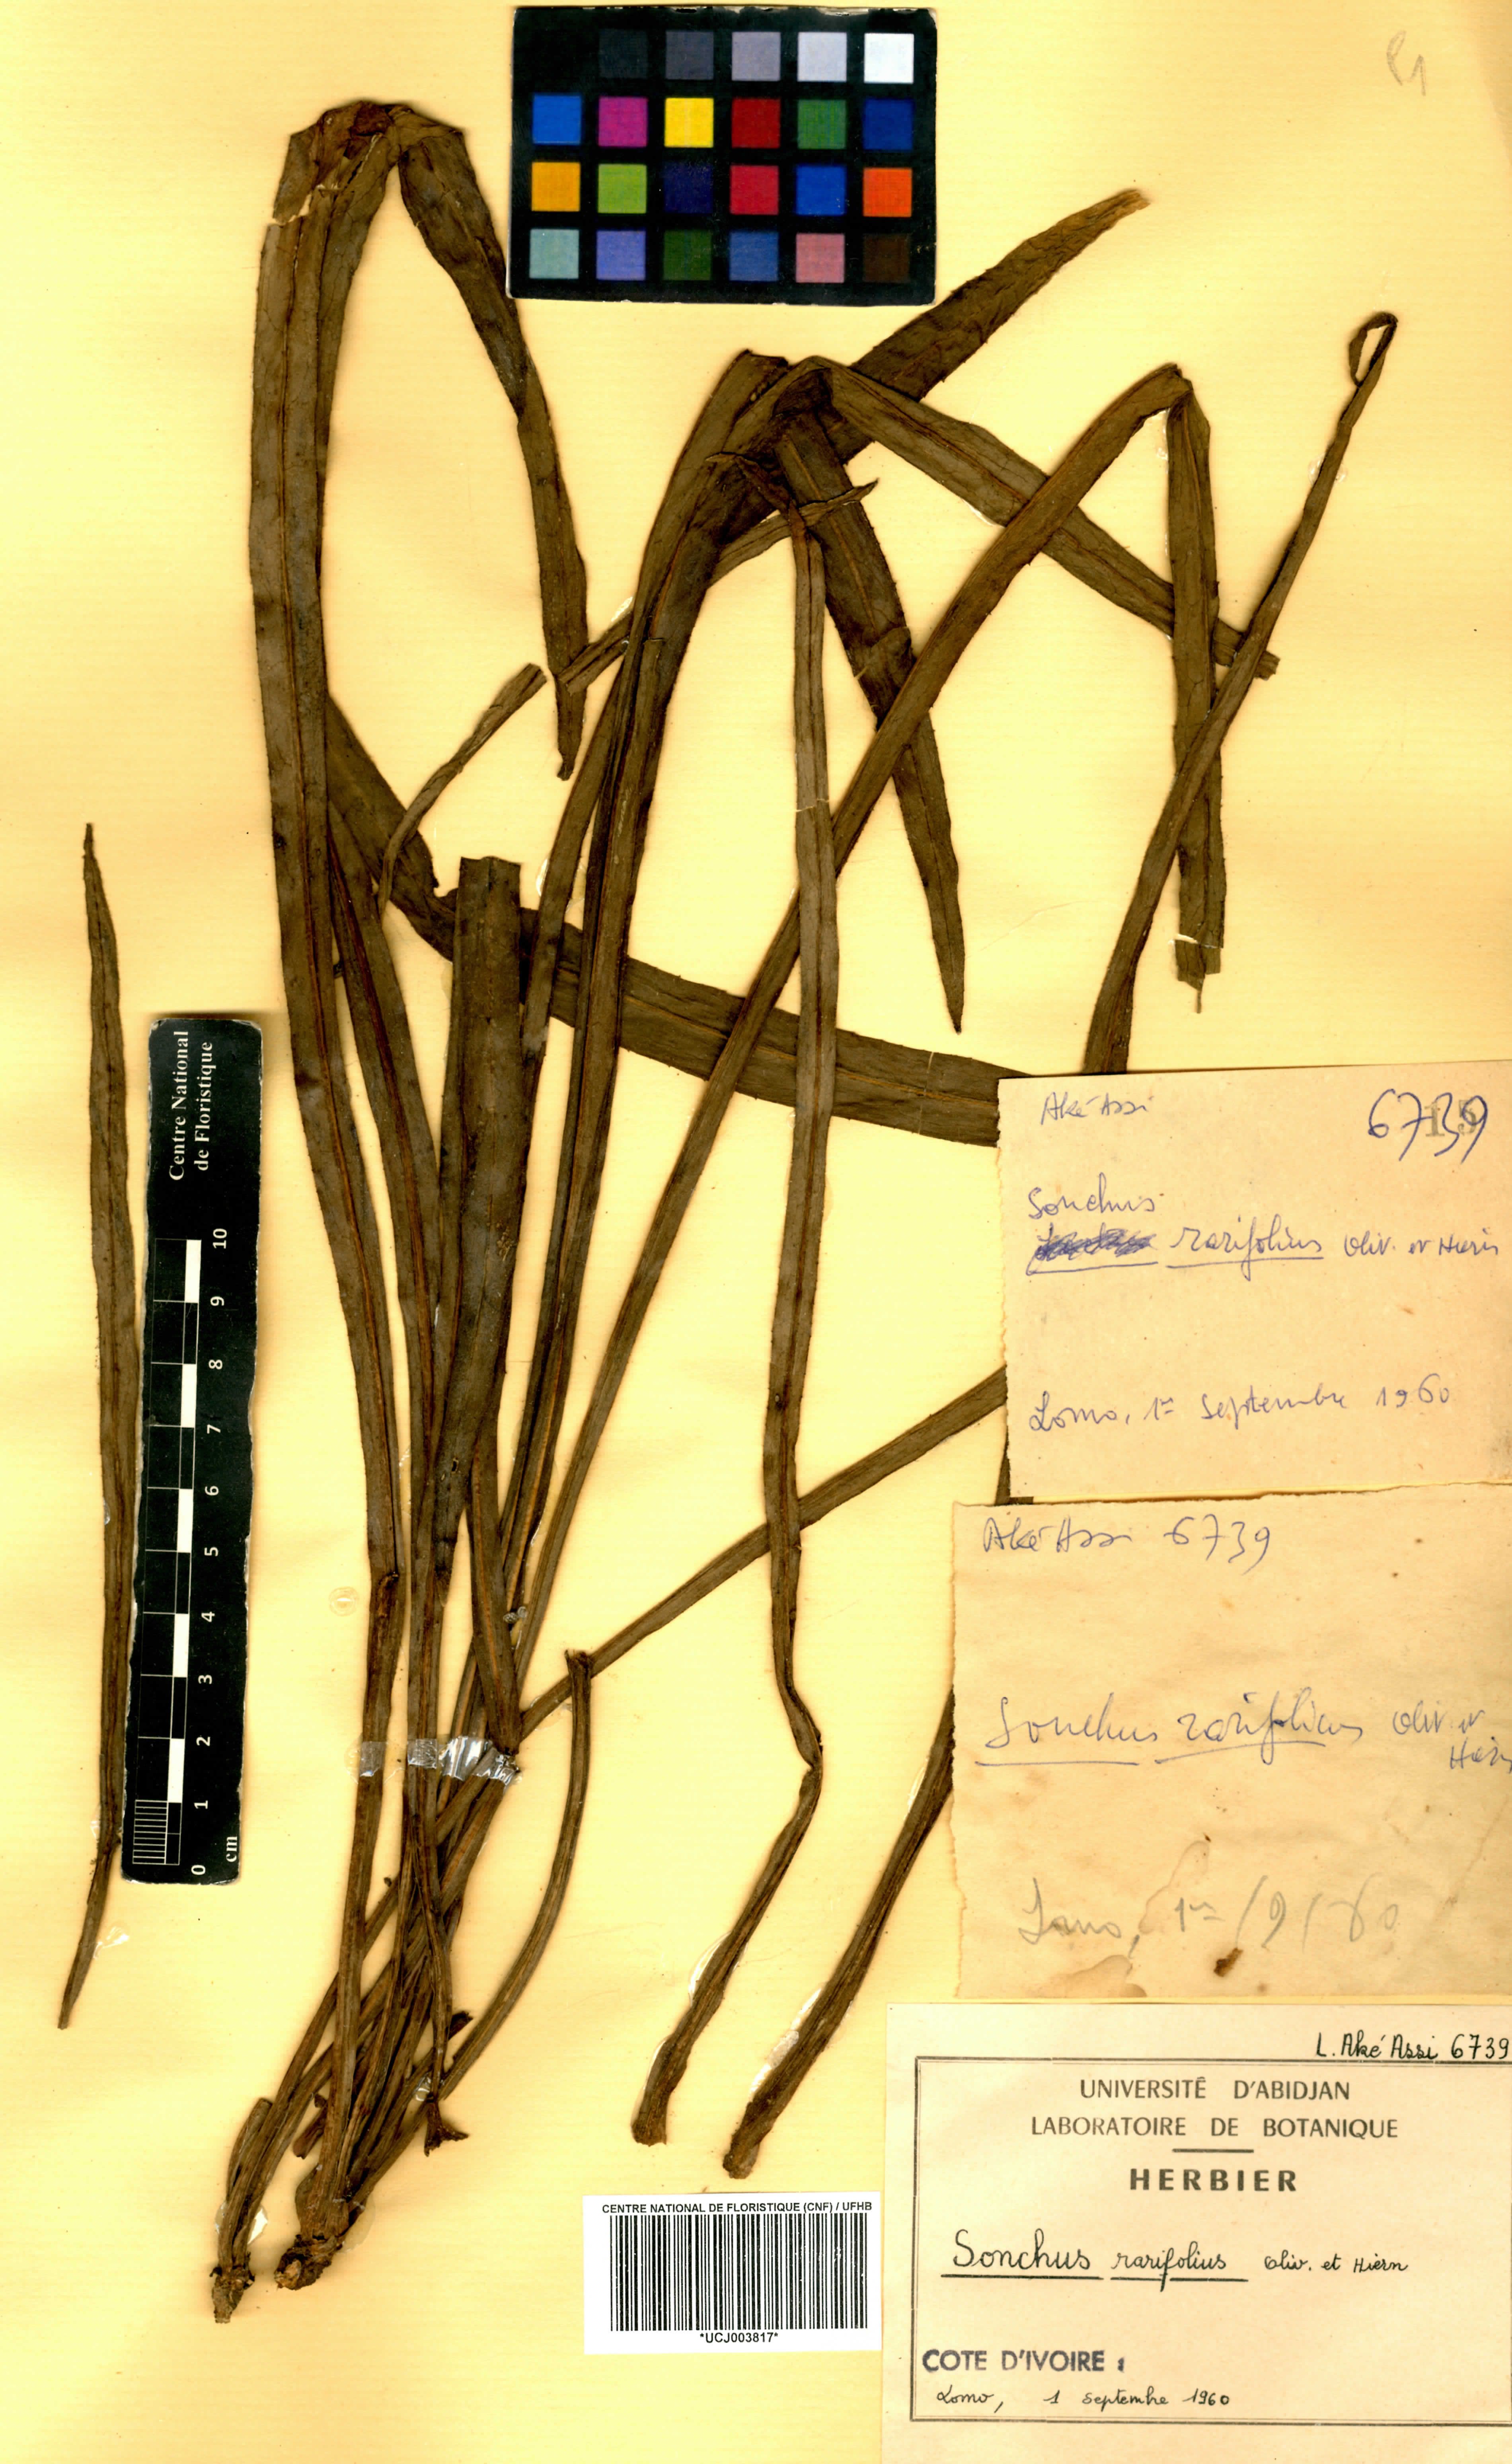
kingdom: Plantae
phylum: Tracheophyta
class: Magnoliopsida
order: Asterales
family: Asteraceae
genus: Launaea
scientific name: Launaea rarifolia
